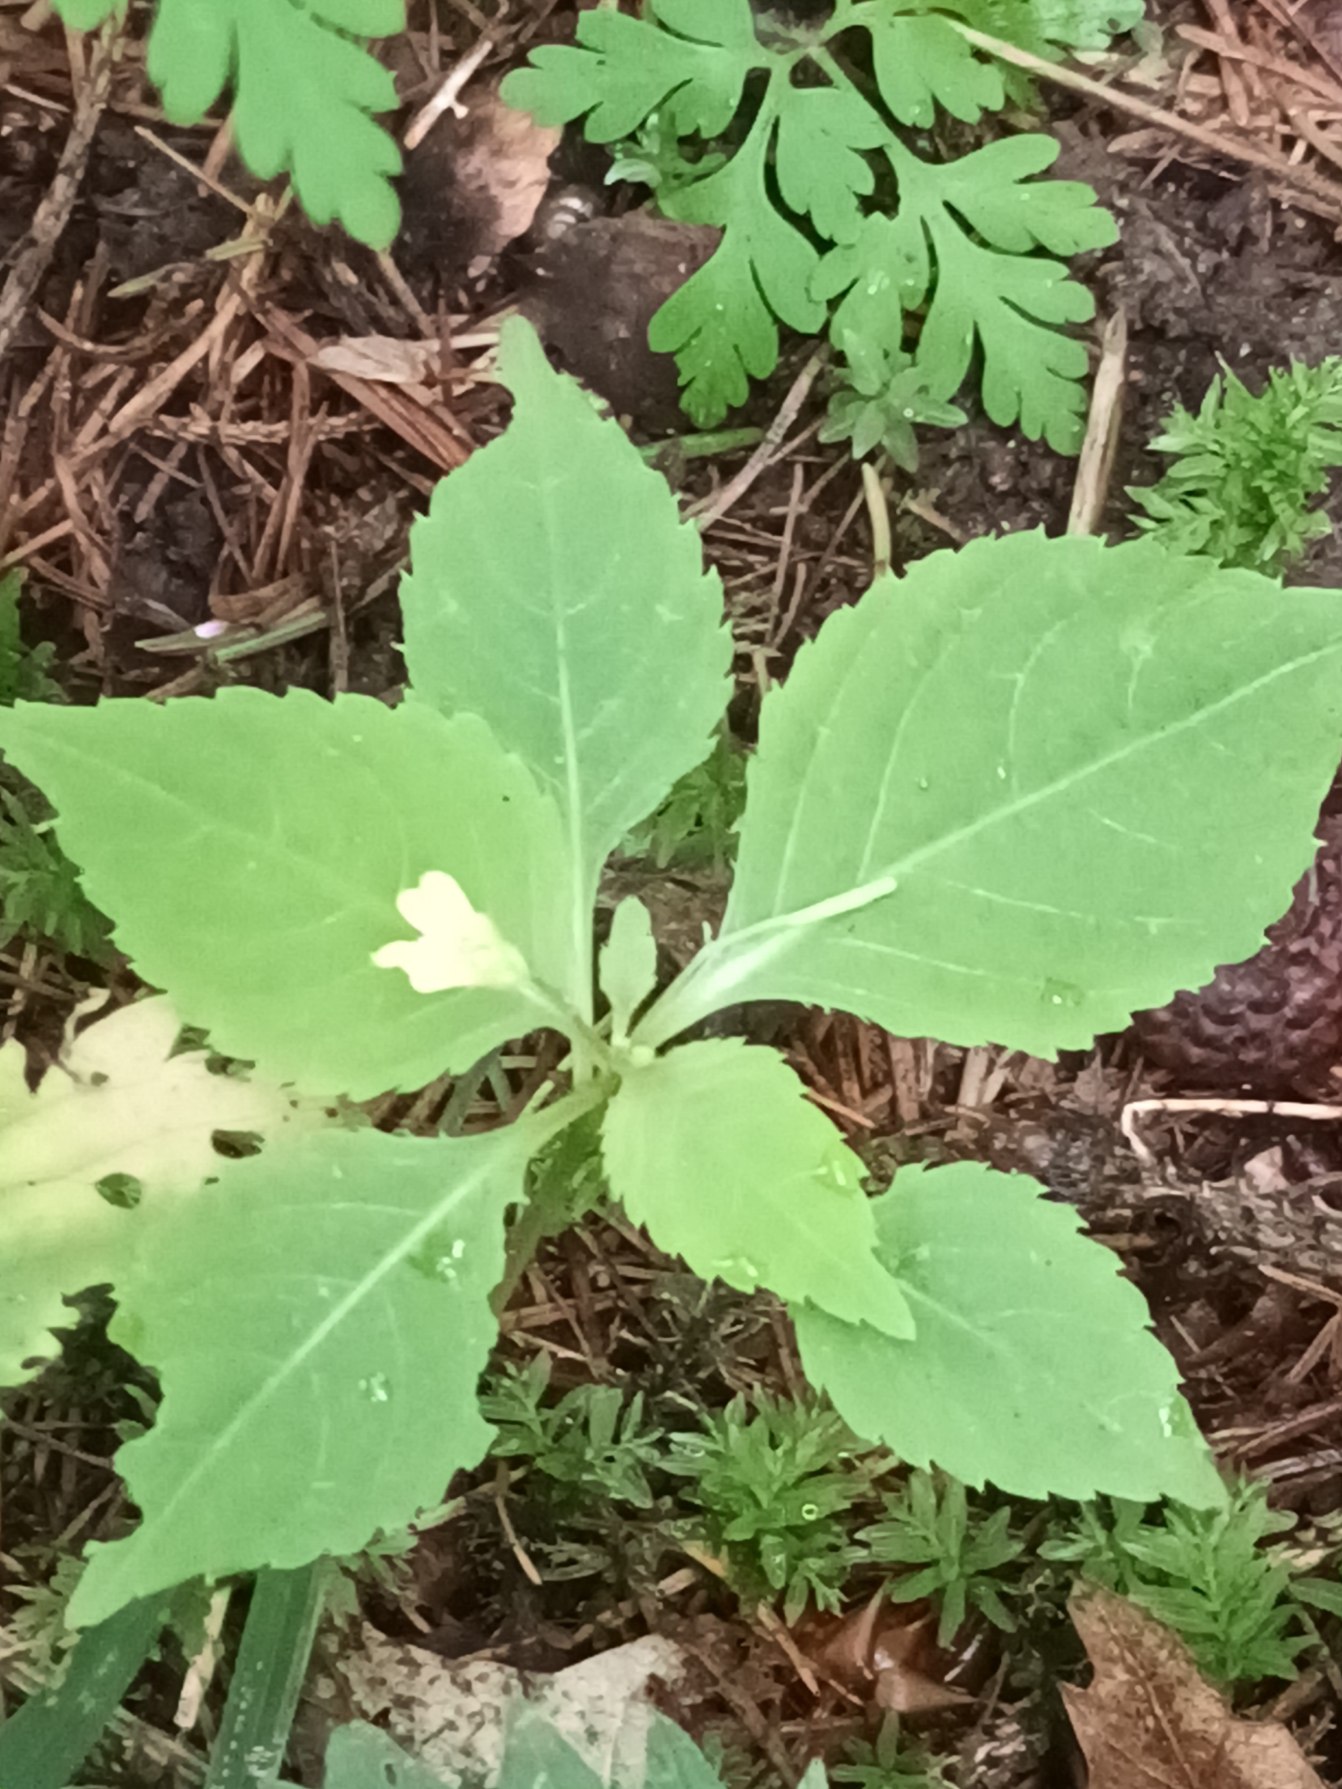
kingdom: Plantae
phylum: Tracheophyta
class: Magnoliopsida
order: Ericales
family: Balsaminaceae
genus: Impatiens
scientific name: Impatiens parviflora
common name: Småblomstret balsamin
